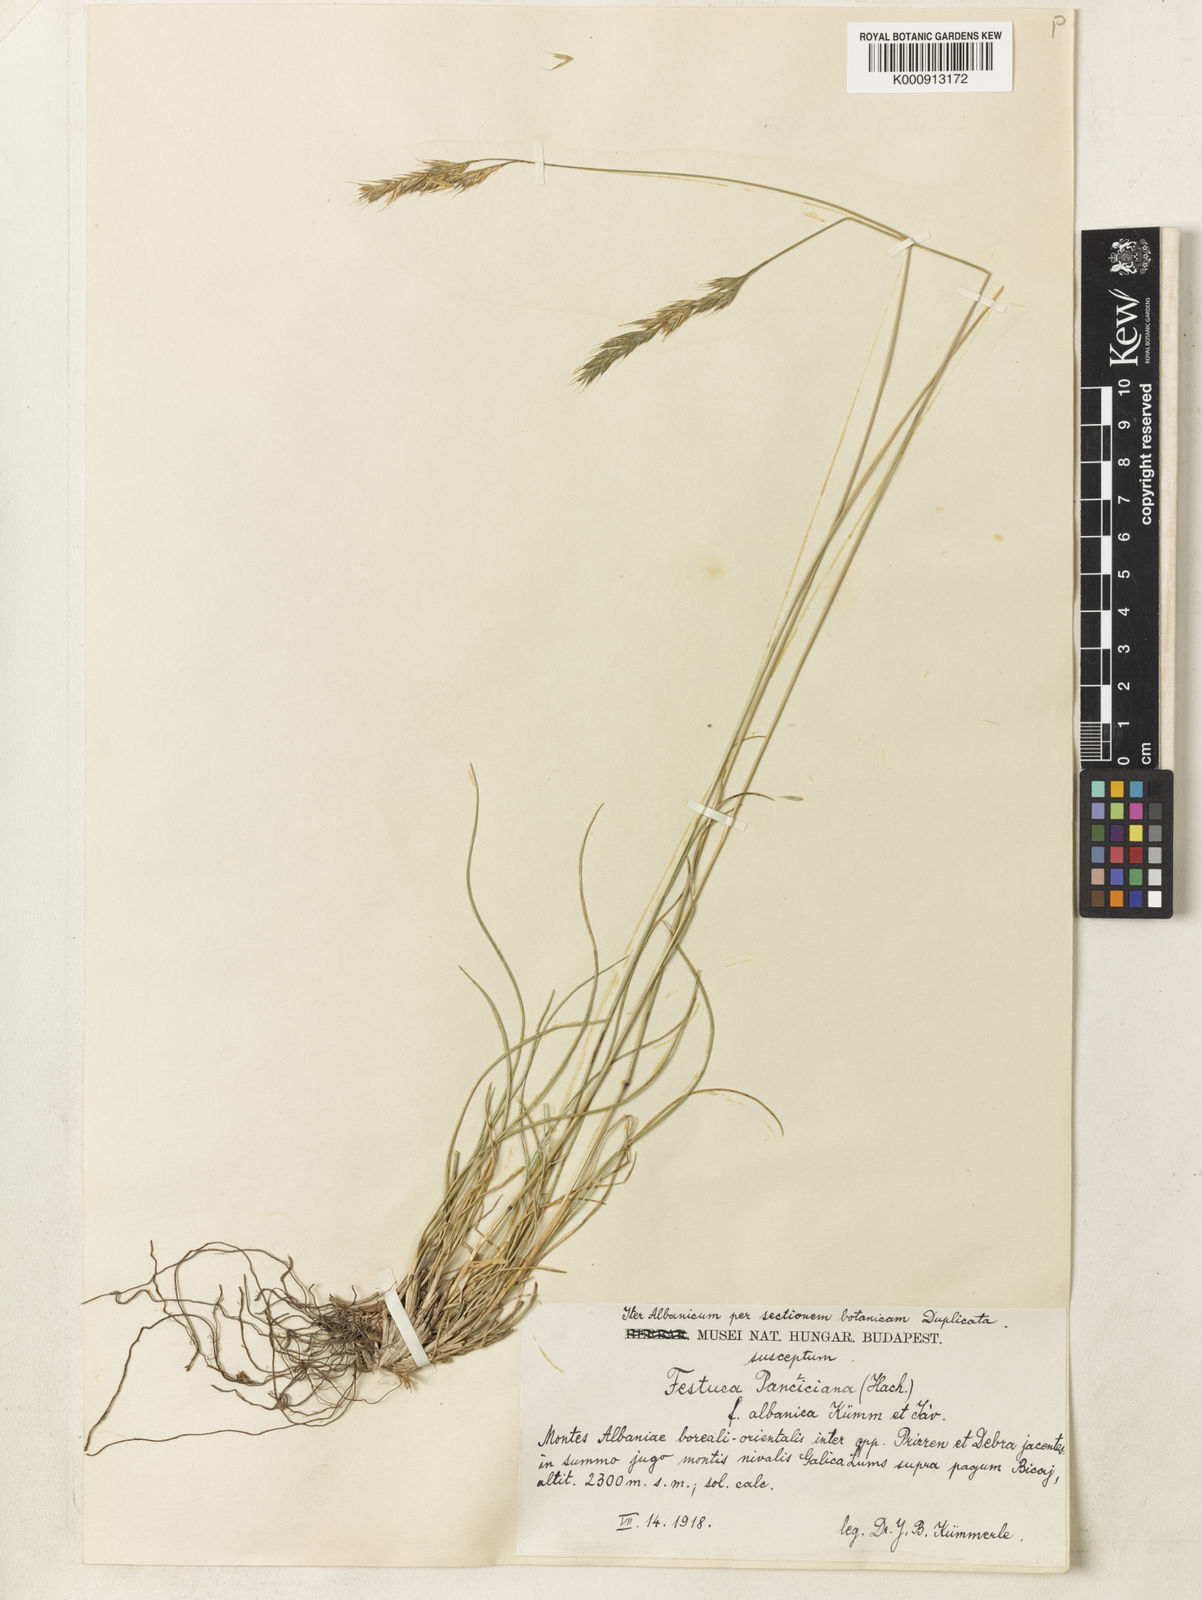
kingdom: Plantae
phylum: Tracheophyta
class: Liliopsida
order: Poales
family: Poaceae
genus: Festuca
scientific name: Festuca panciciana
